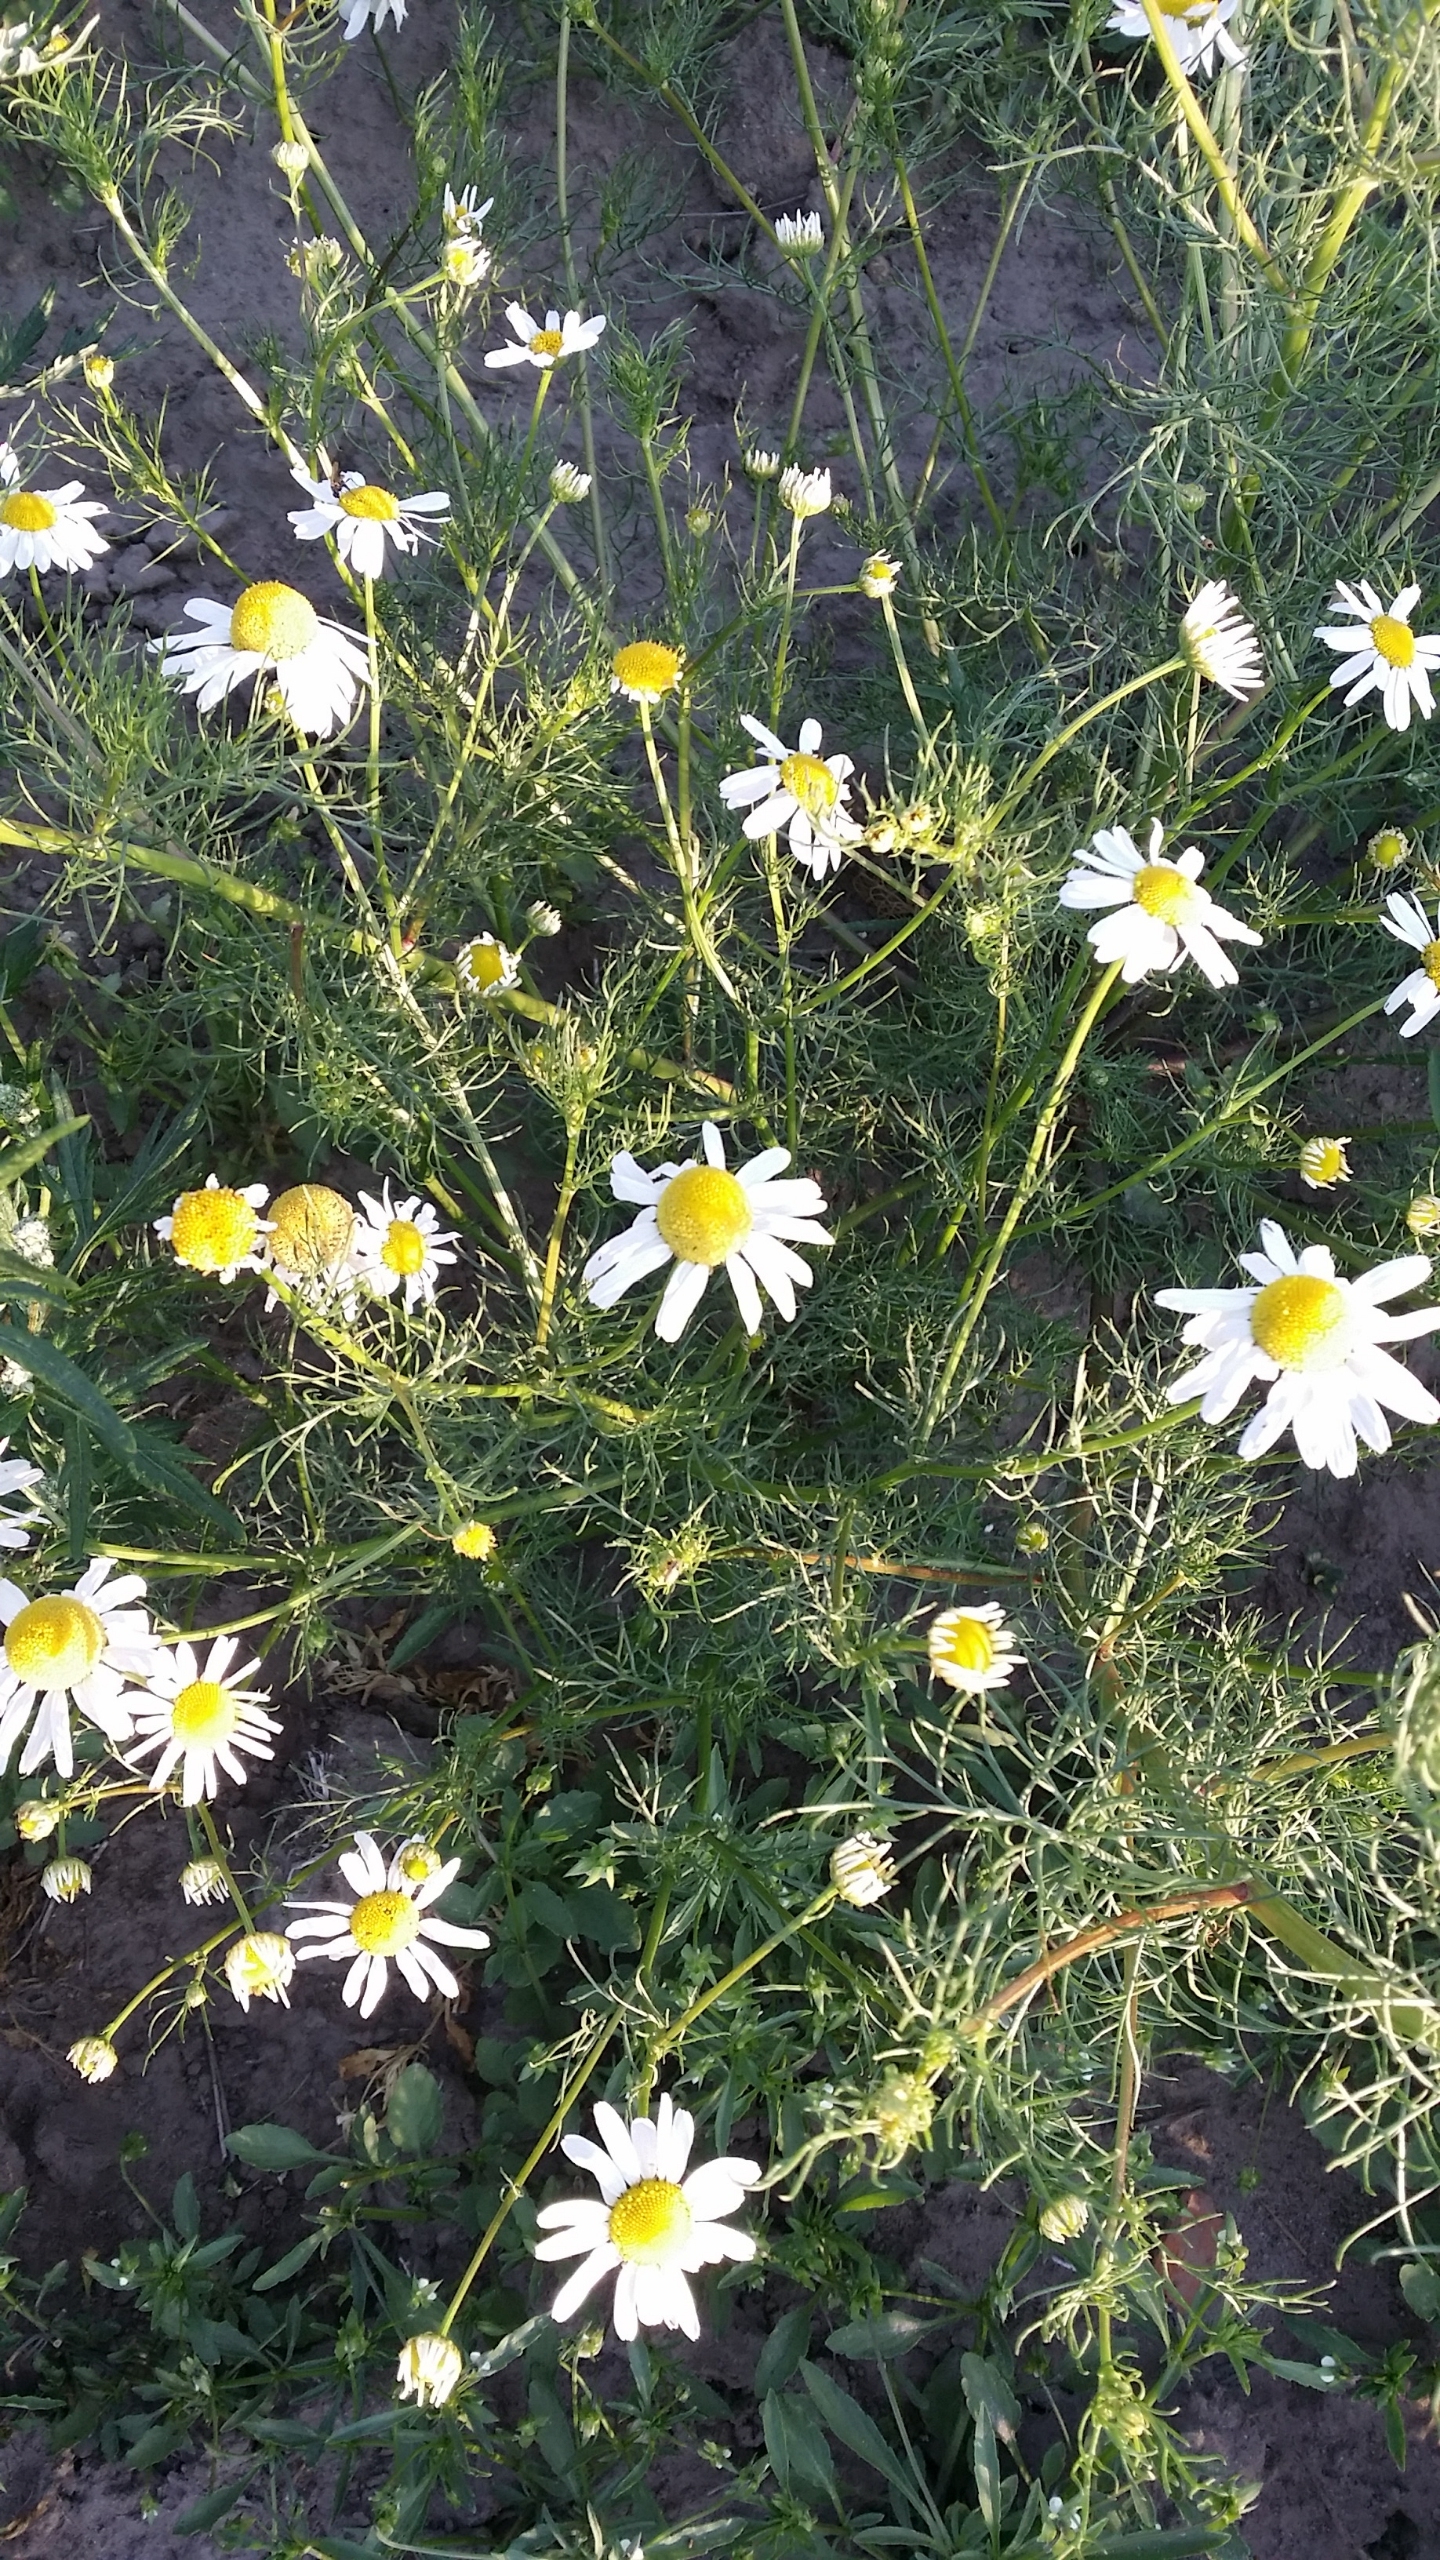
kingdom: Plantae
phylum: Tracheophyta
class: Magnoliopsida
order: Asterales
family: Asteraceae
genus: Tripleurospermum
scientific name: Tripleurospermum inodorum
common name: Lugtløs kamille
